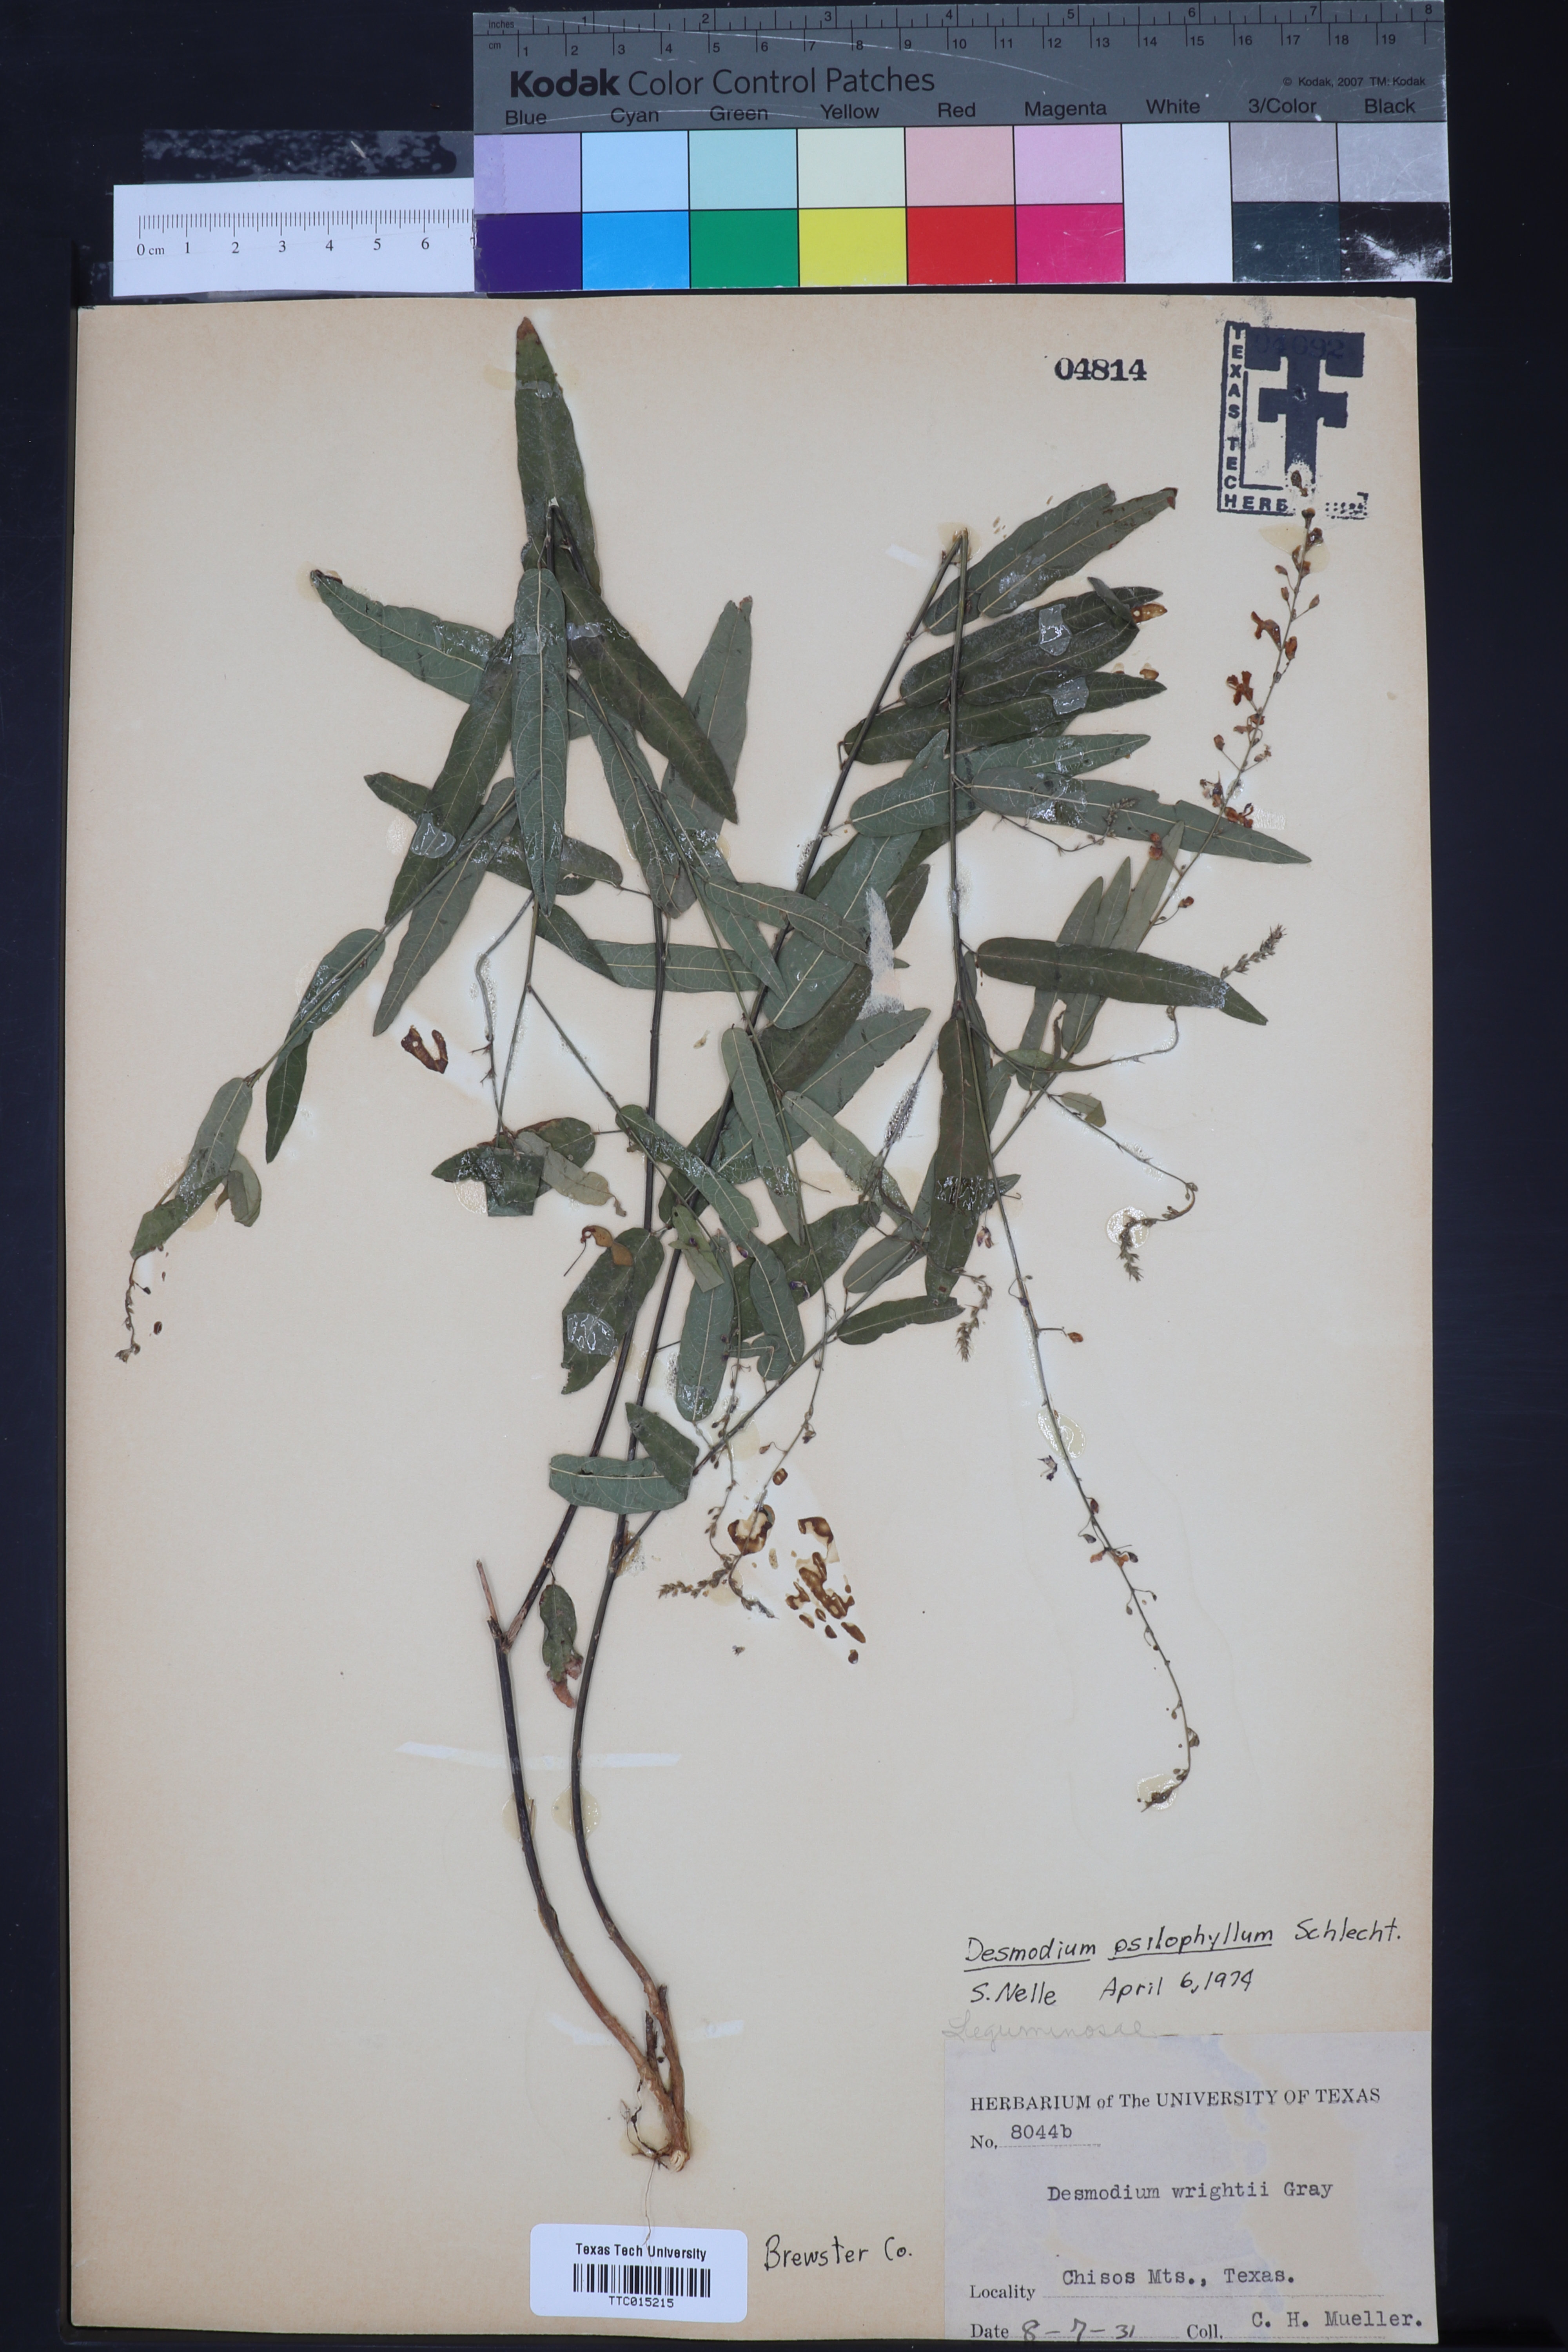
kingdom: Plantae
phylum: Tracheophyta
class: Magnoliopsida
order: Fabales
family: Fabaceae
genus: Desmodium
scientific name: Desmodium psilophyllum
